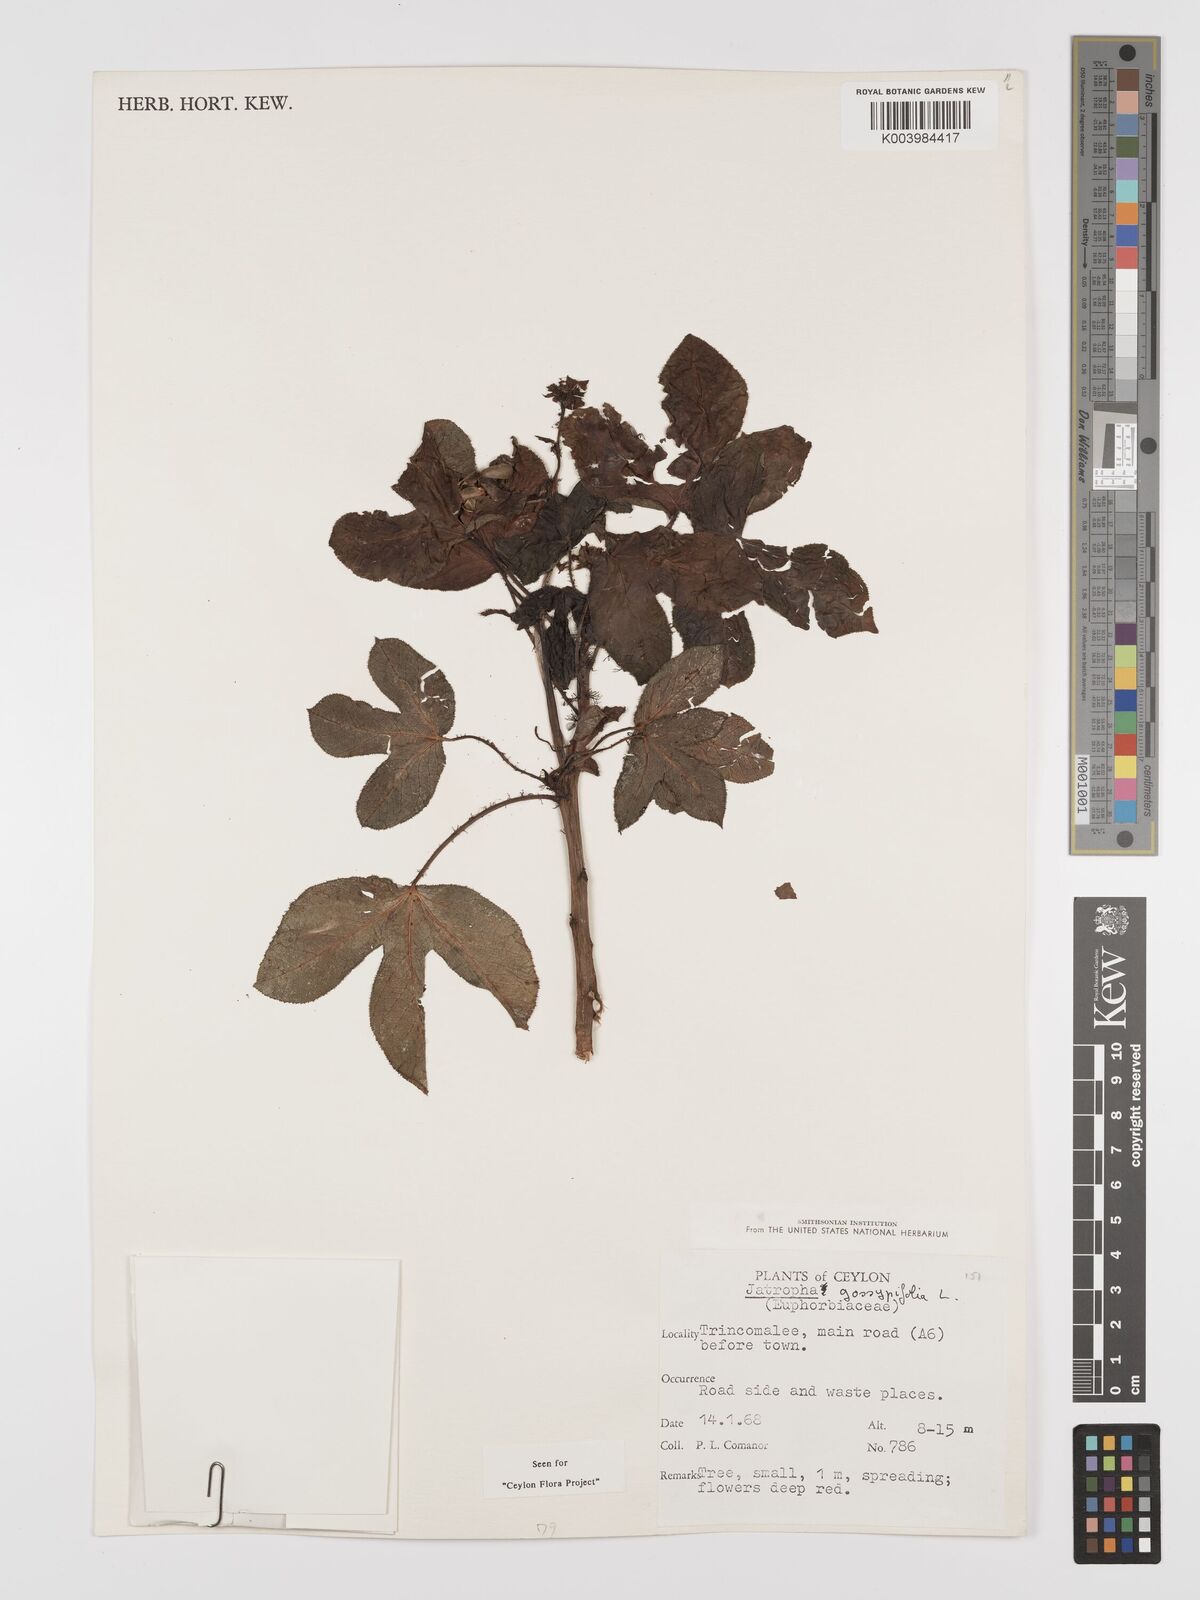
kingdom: Plantae
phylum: Tracheophyta
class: Magnoliopsida
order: Malpighiales
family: Euphorbiaceae
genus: Jatropha
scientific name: Jatropha gossypiifolia
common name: Bellyache bush
